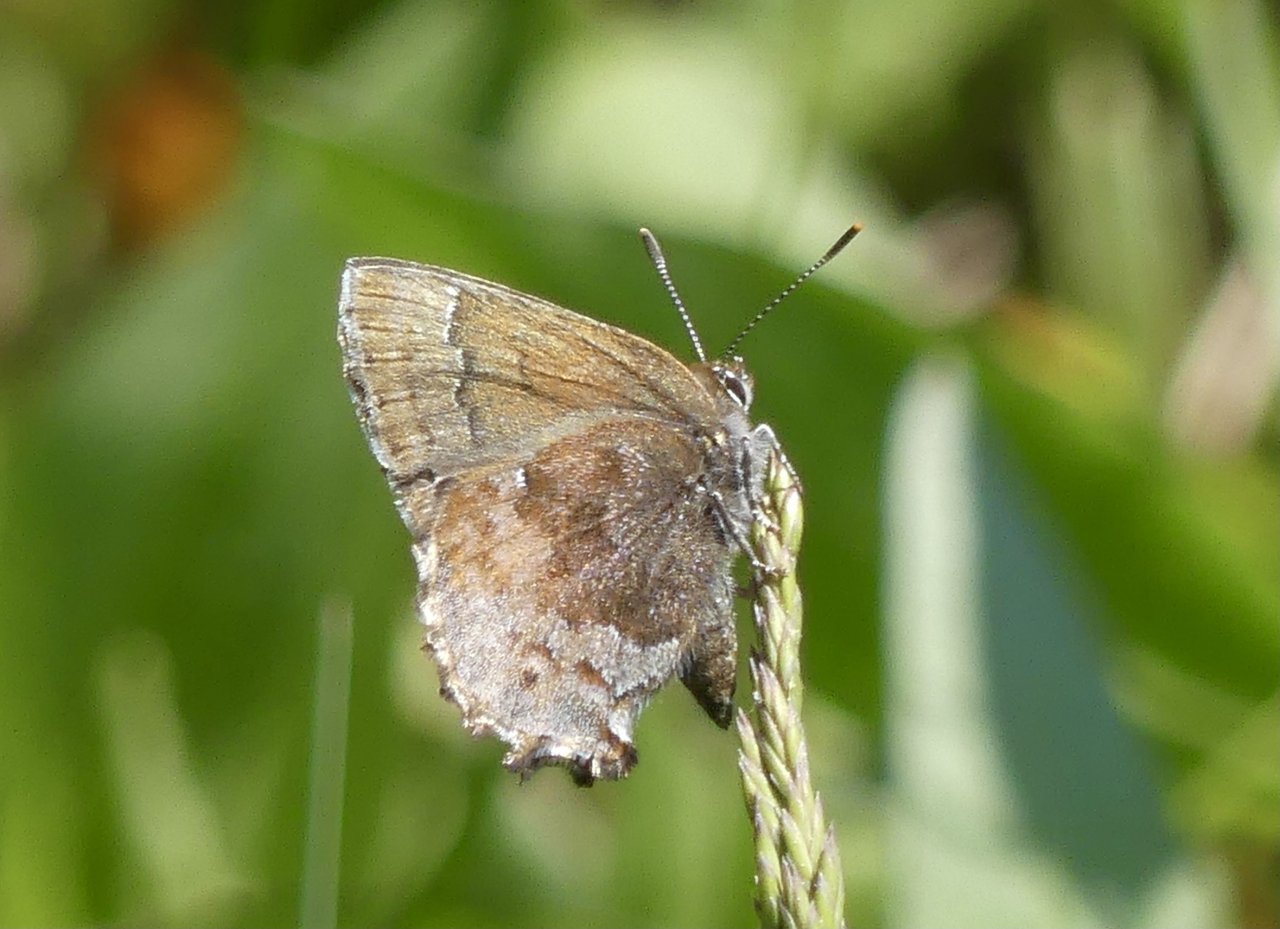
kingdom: Animalia
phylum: Arthropoda
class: Insecta
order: Lepidoptera
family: Lycaenidae
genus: Thecla
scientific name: Thecla irus
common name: Frosted Elfin
